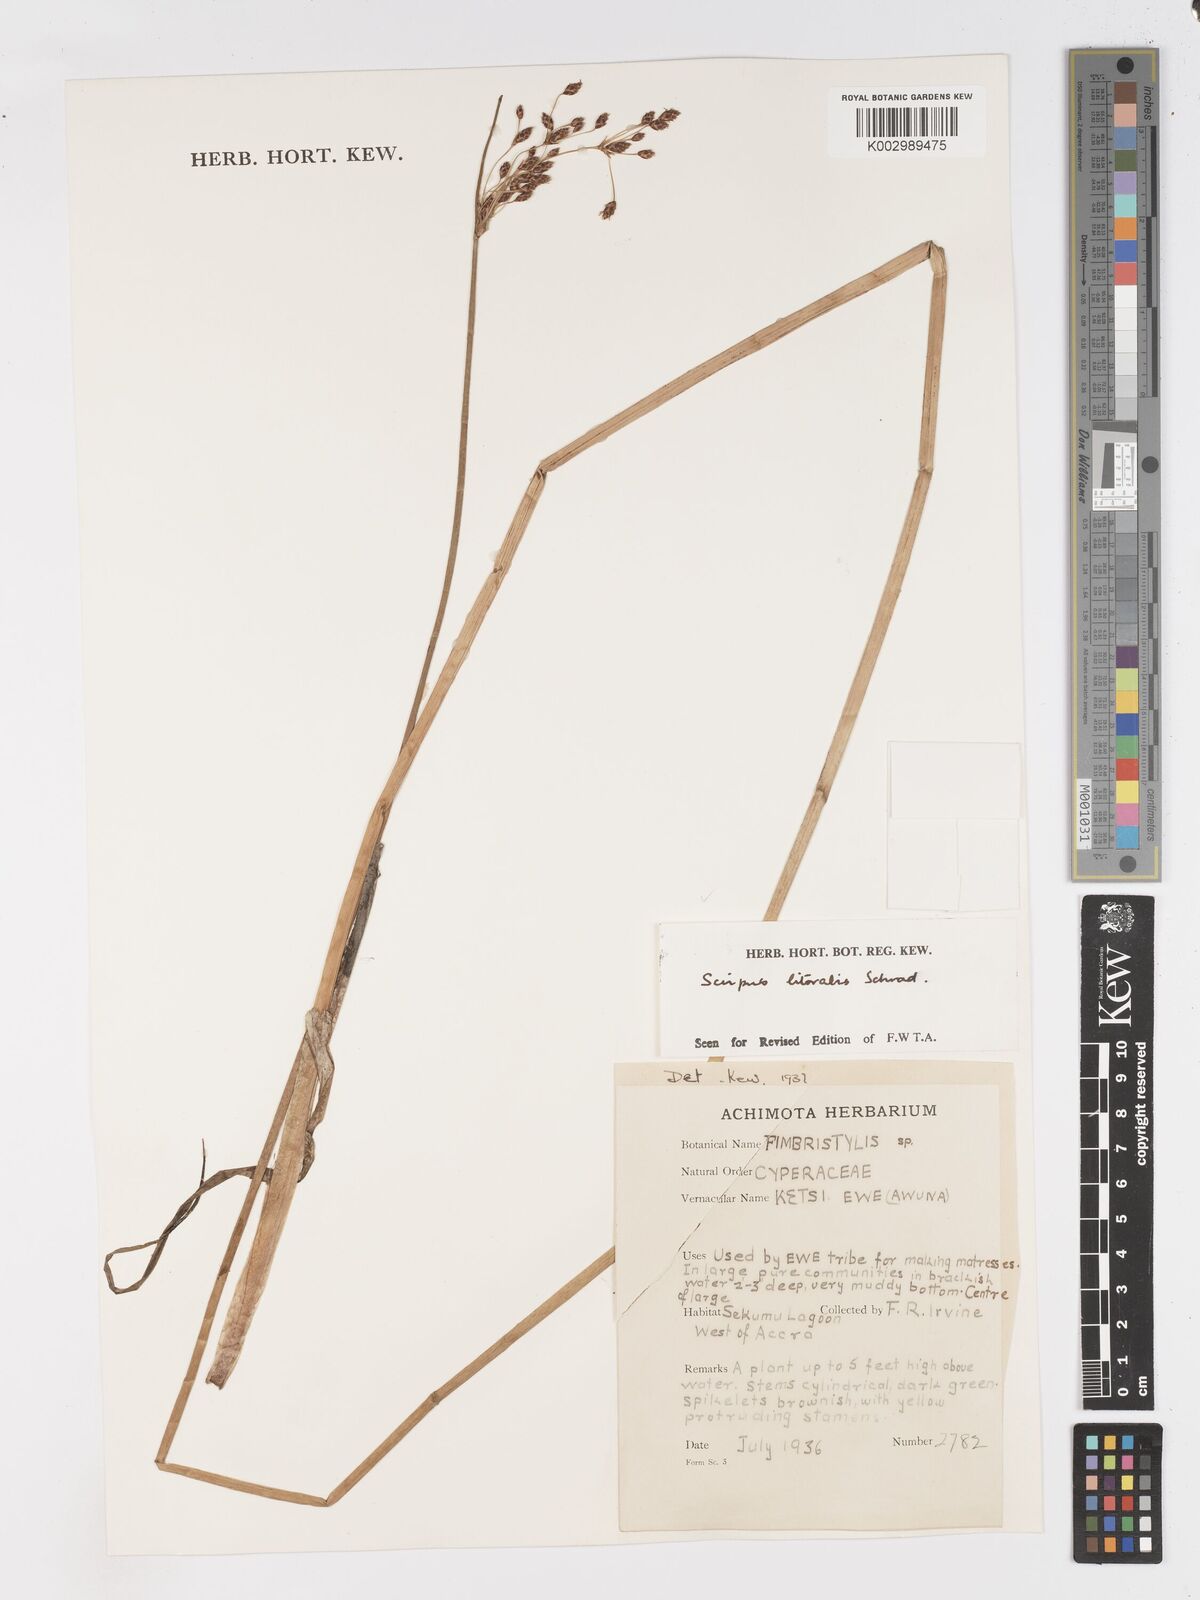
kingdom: Plantae
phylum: Tracheophyta
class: Liliopsida
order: Poales
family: Cyperaceae
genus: Schoenoplectus
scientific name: Schoenoplectus litoralis
